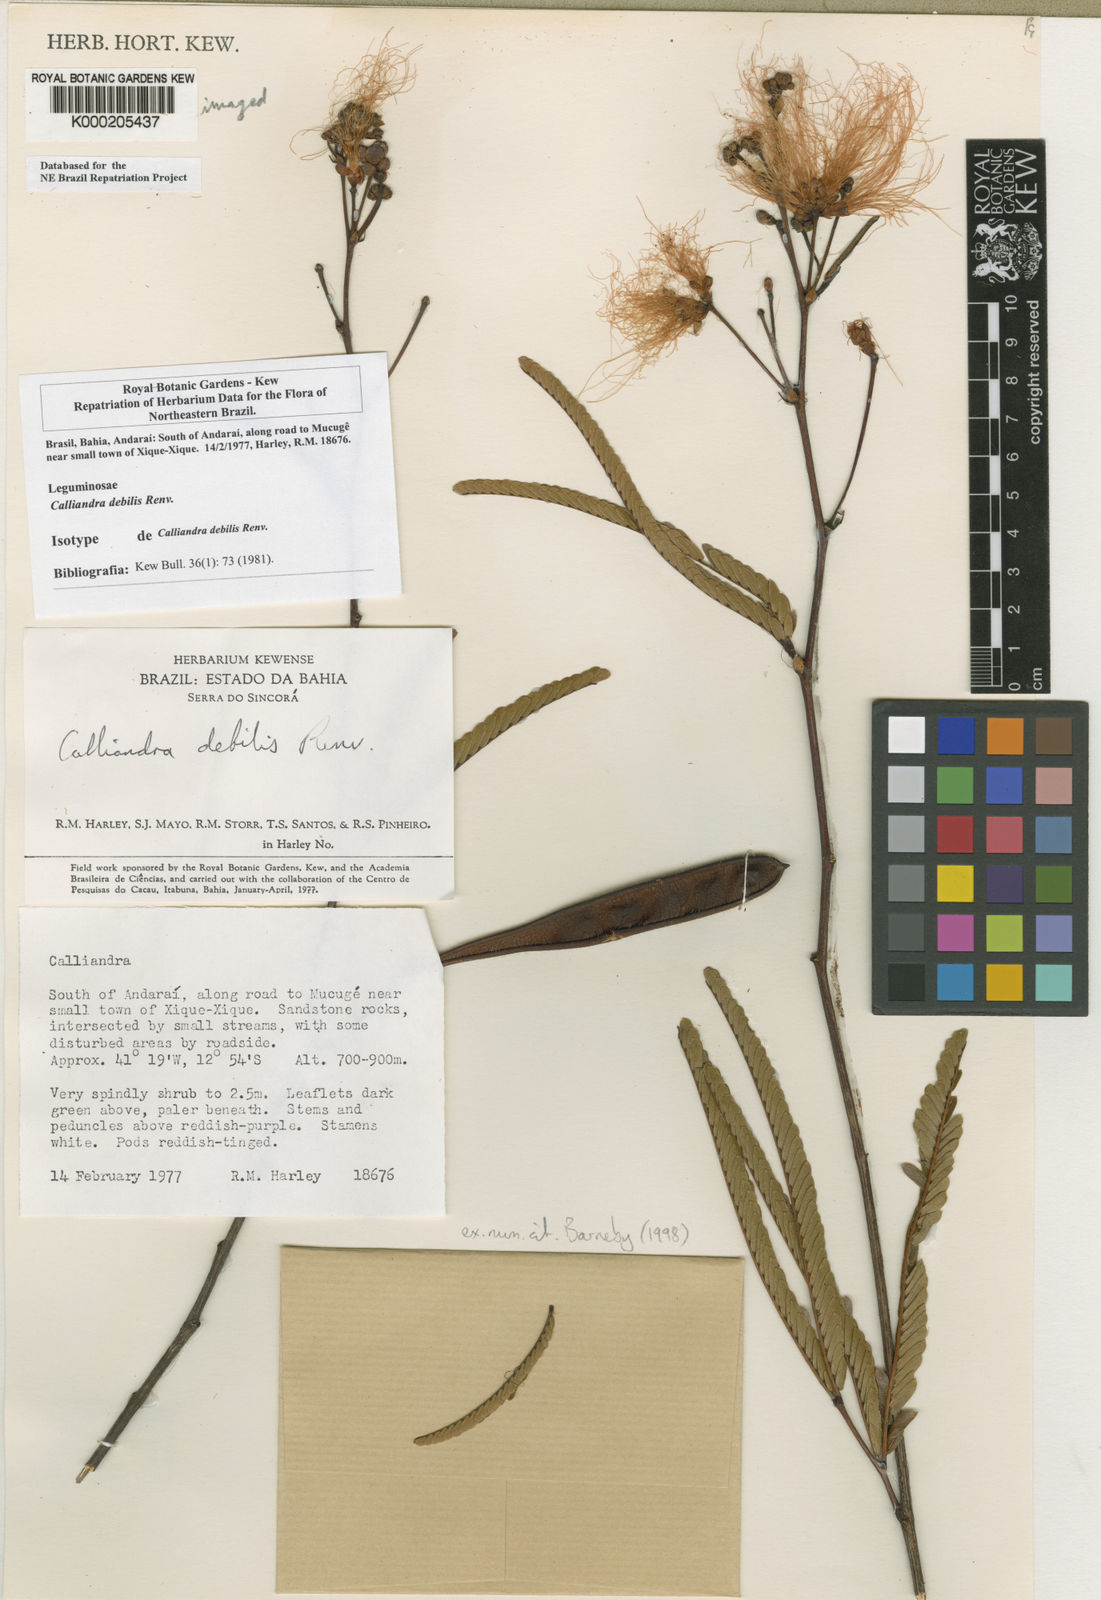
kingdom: Plantae
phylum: Tracheophyta
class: Magnoliopsida
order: Fabales
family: Fabaceae
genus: Calliandra
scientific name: Calliandra debilis
